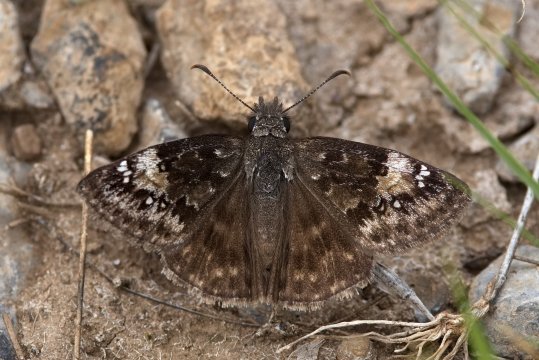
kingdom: Animalia
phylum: Arthropoda
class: Insecta
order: Lepidoptera
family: Hesperiidae
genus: Gesta
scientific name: Gesta
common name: Columbine Duskywing
